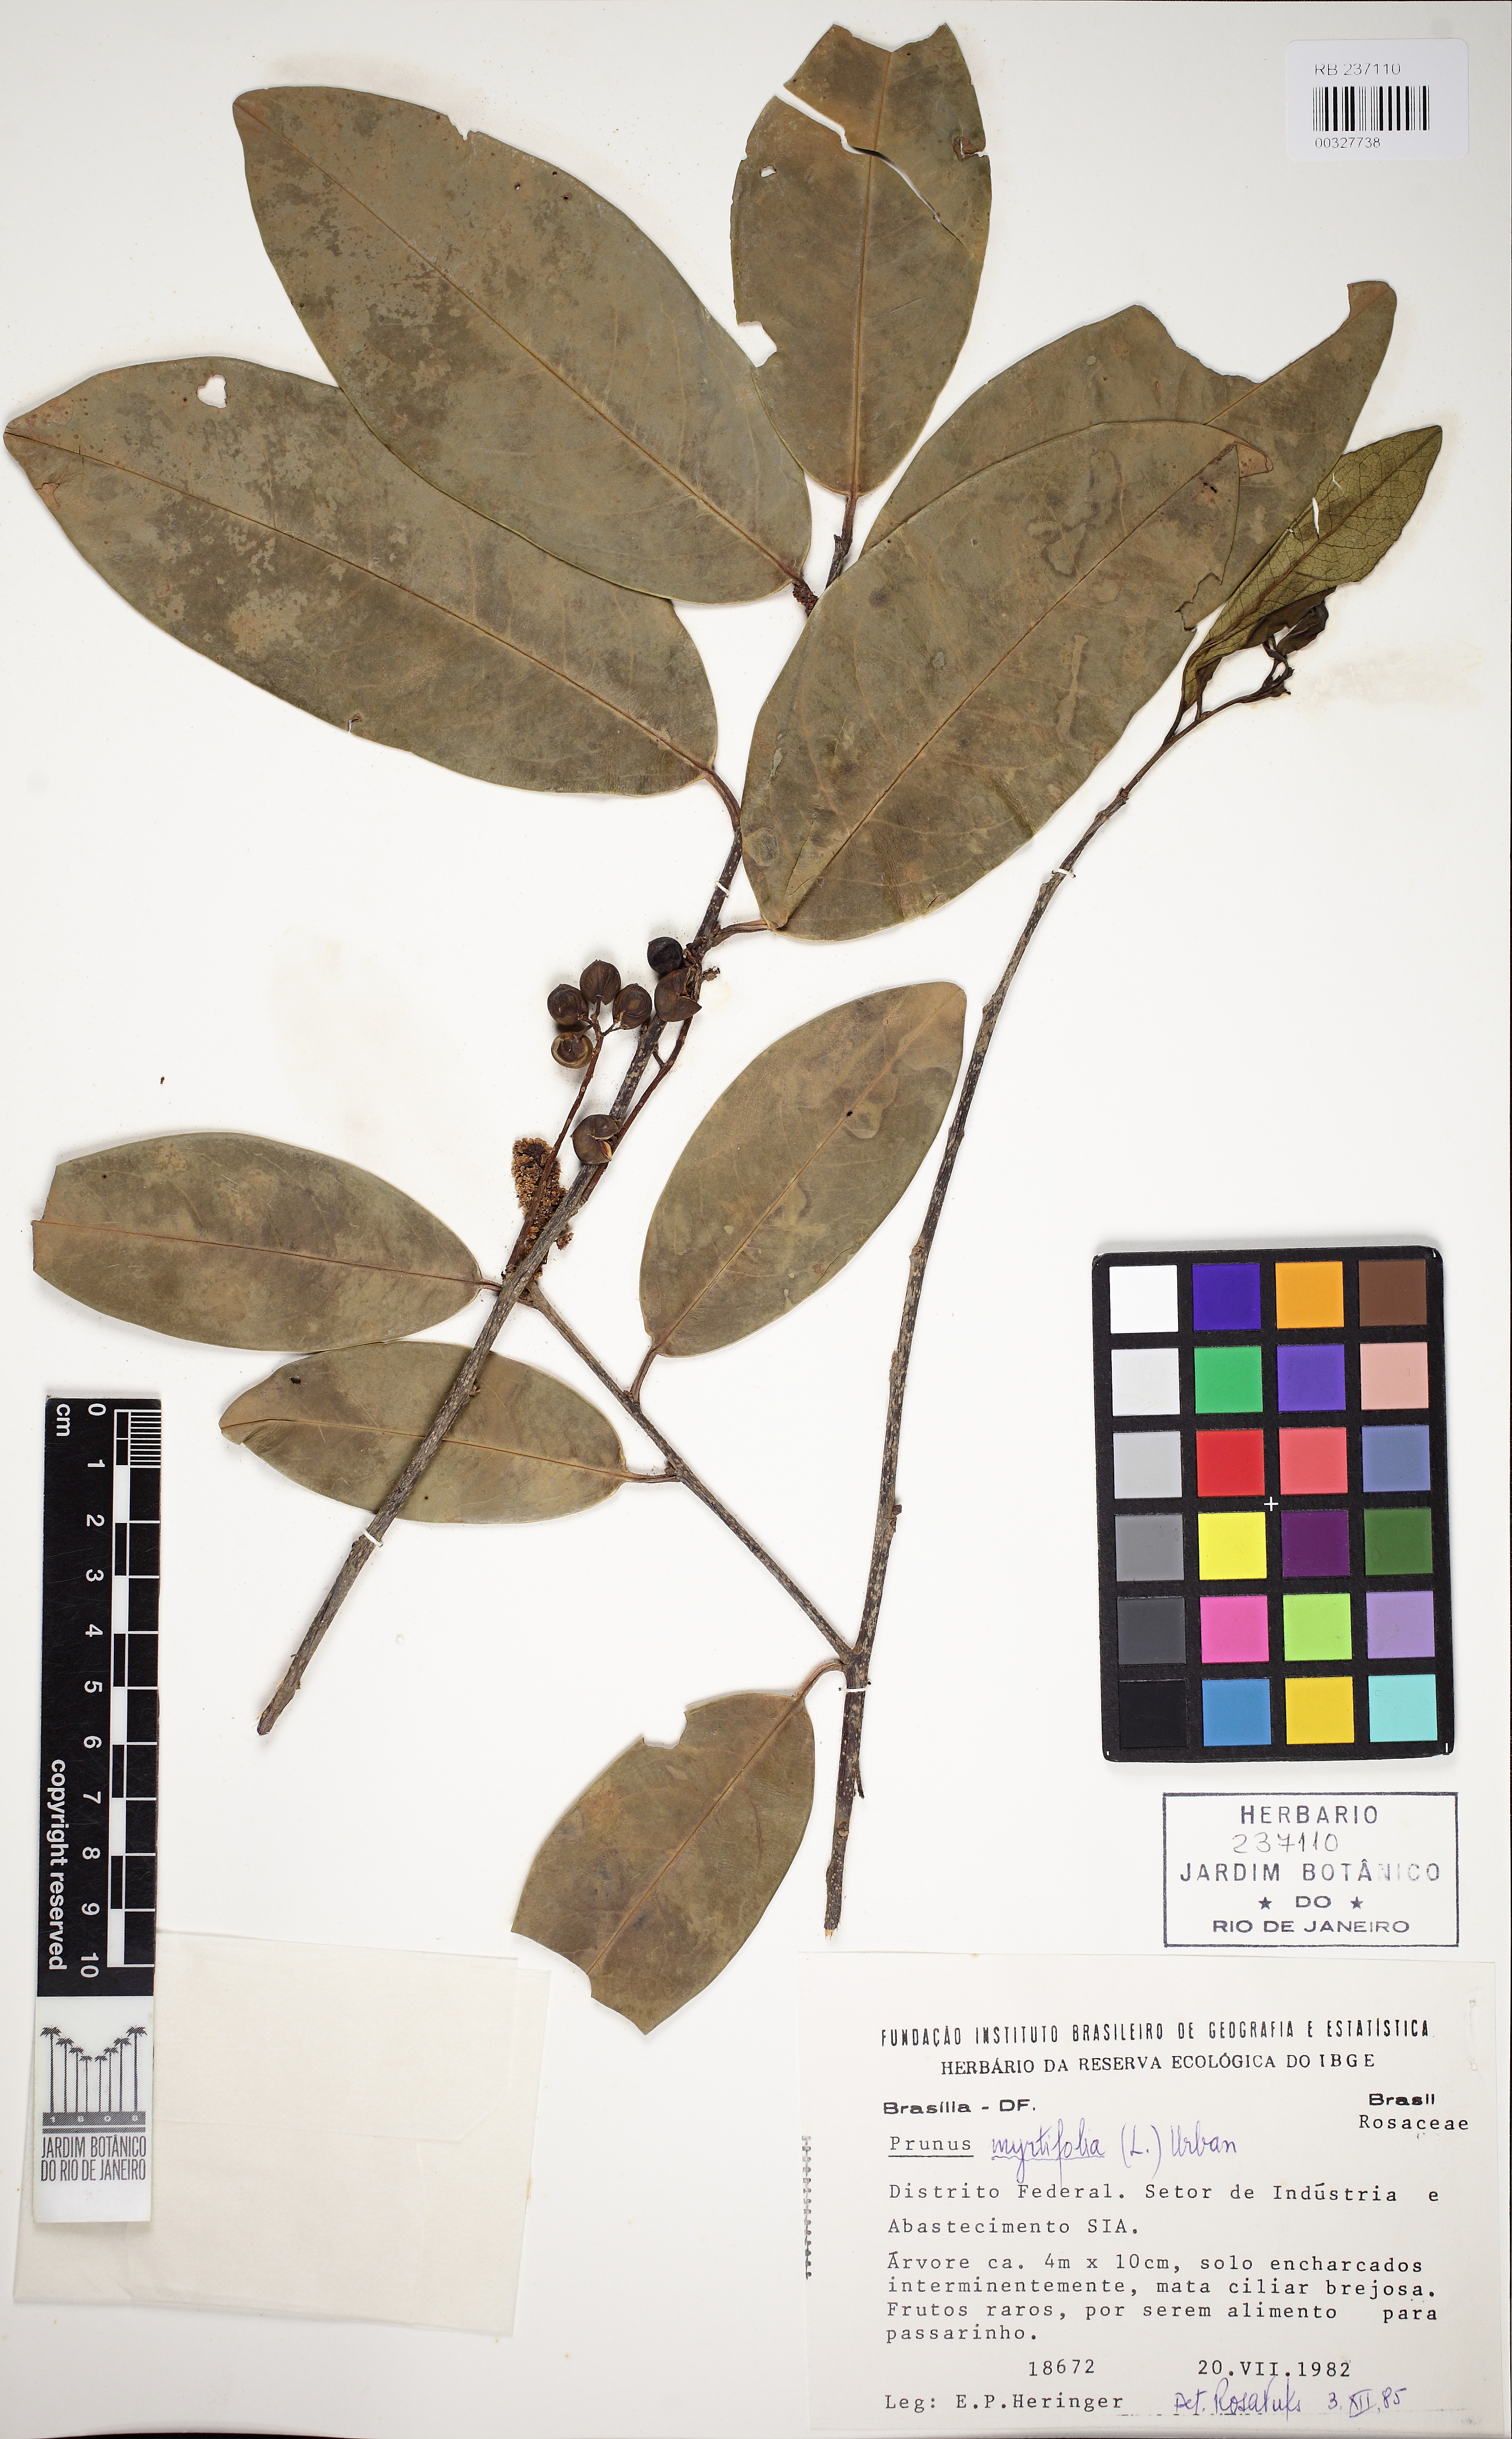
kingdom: Plantae
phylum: Tracheophyta
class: Magnoliopsida
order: Rosales
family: Rosaceae
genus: Prunus
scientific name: Prunus myrtifolia
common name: West indies cherry
